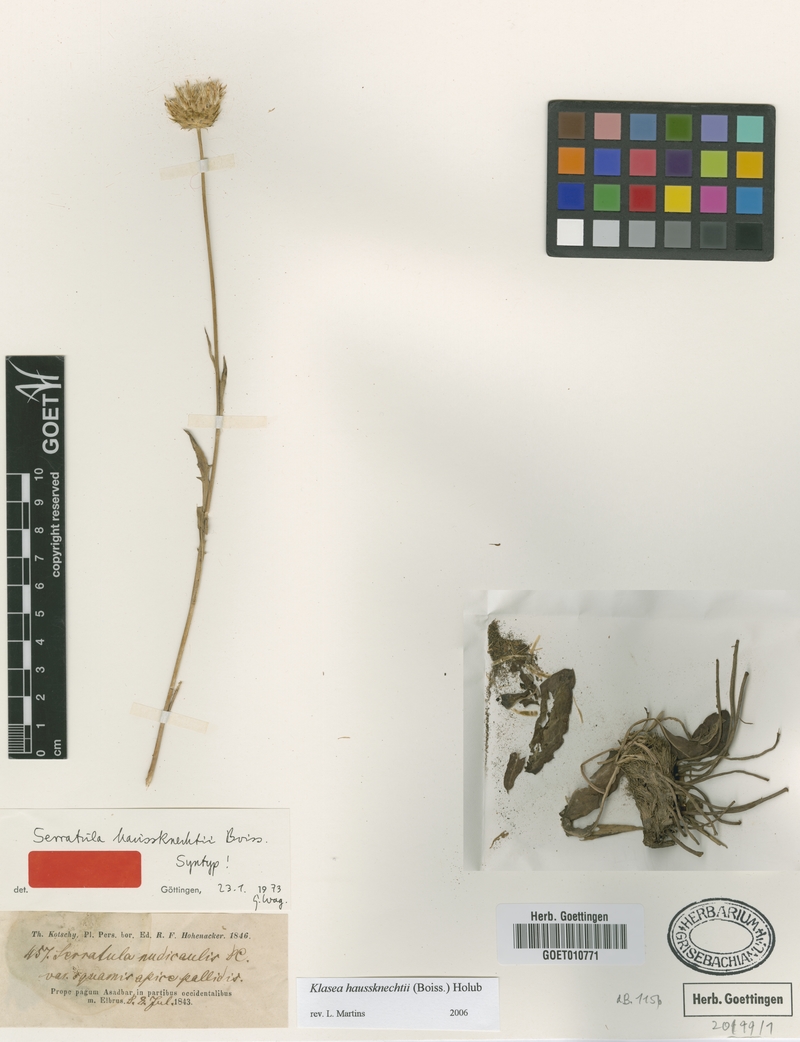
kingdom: Plantae
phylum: Tracheophyta
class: Magnoliopsida
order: Asterales
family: Asteraceae
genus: Klasea
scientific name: Klasea haussknechtii
